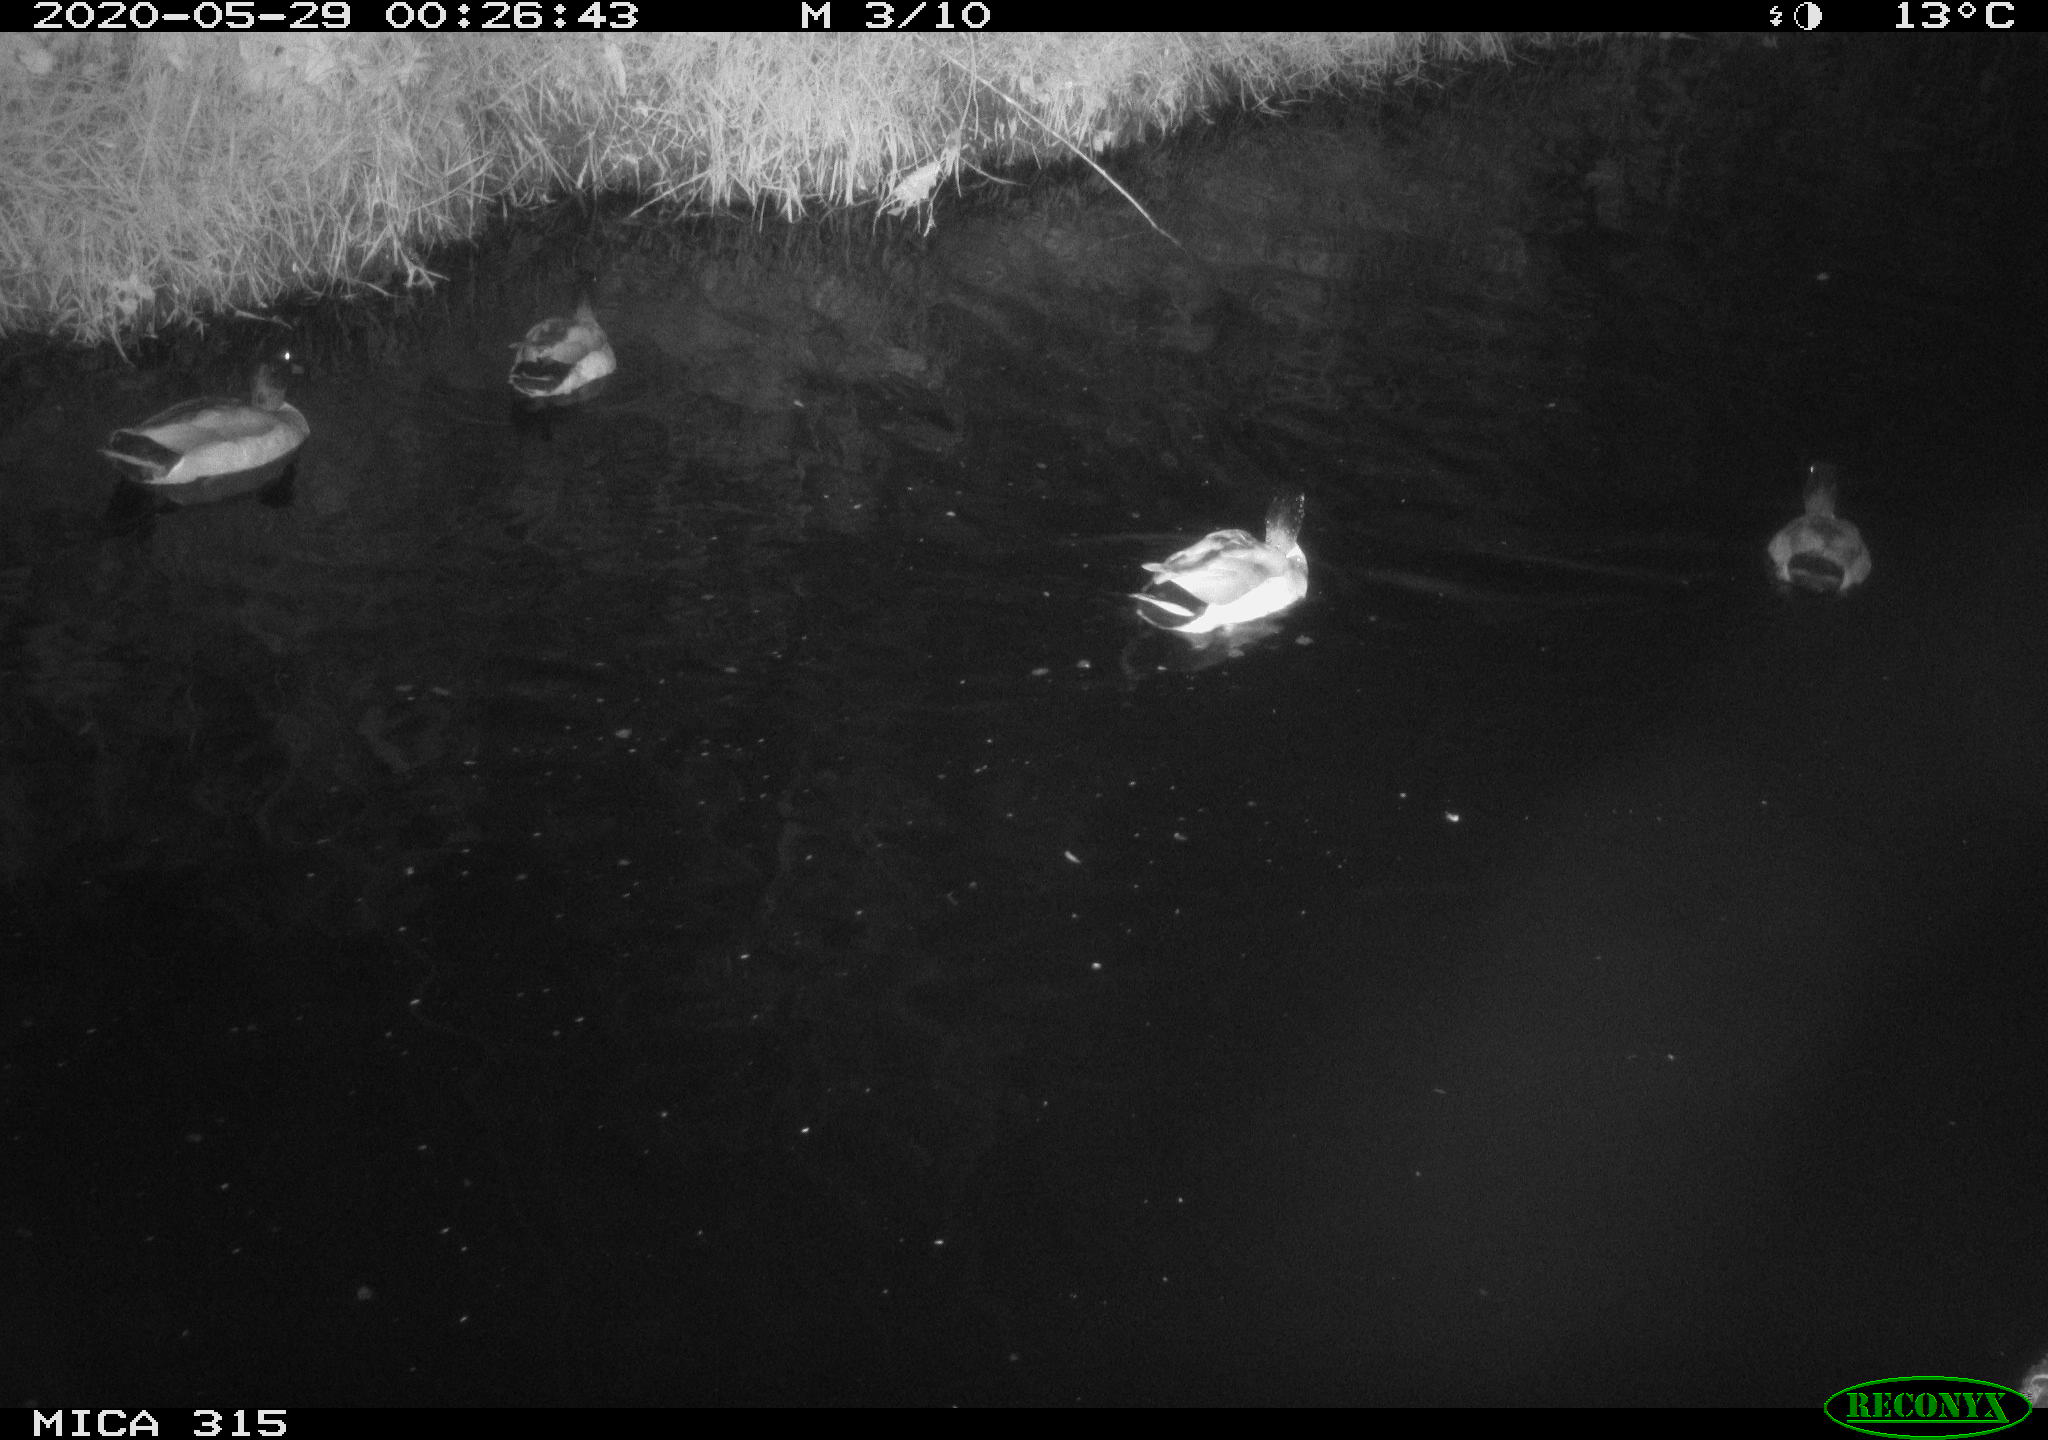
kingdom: Animalia
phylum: Chordata
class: Aves
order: Anseriformes
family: Anatidae
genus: Anas
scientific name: Anas platyrhynchos
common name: Mallard
